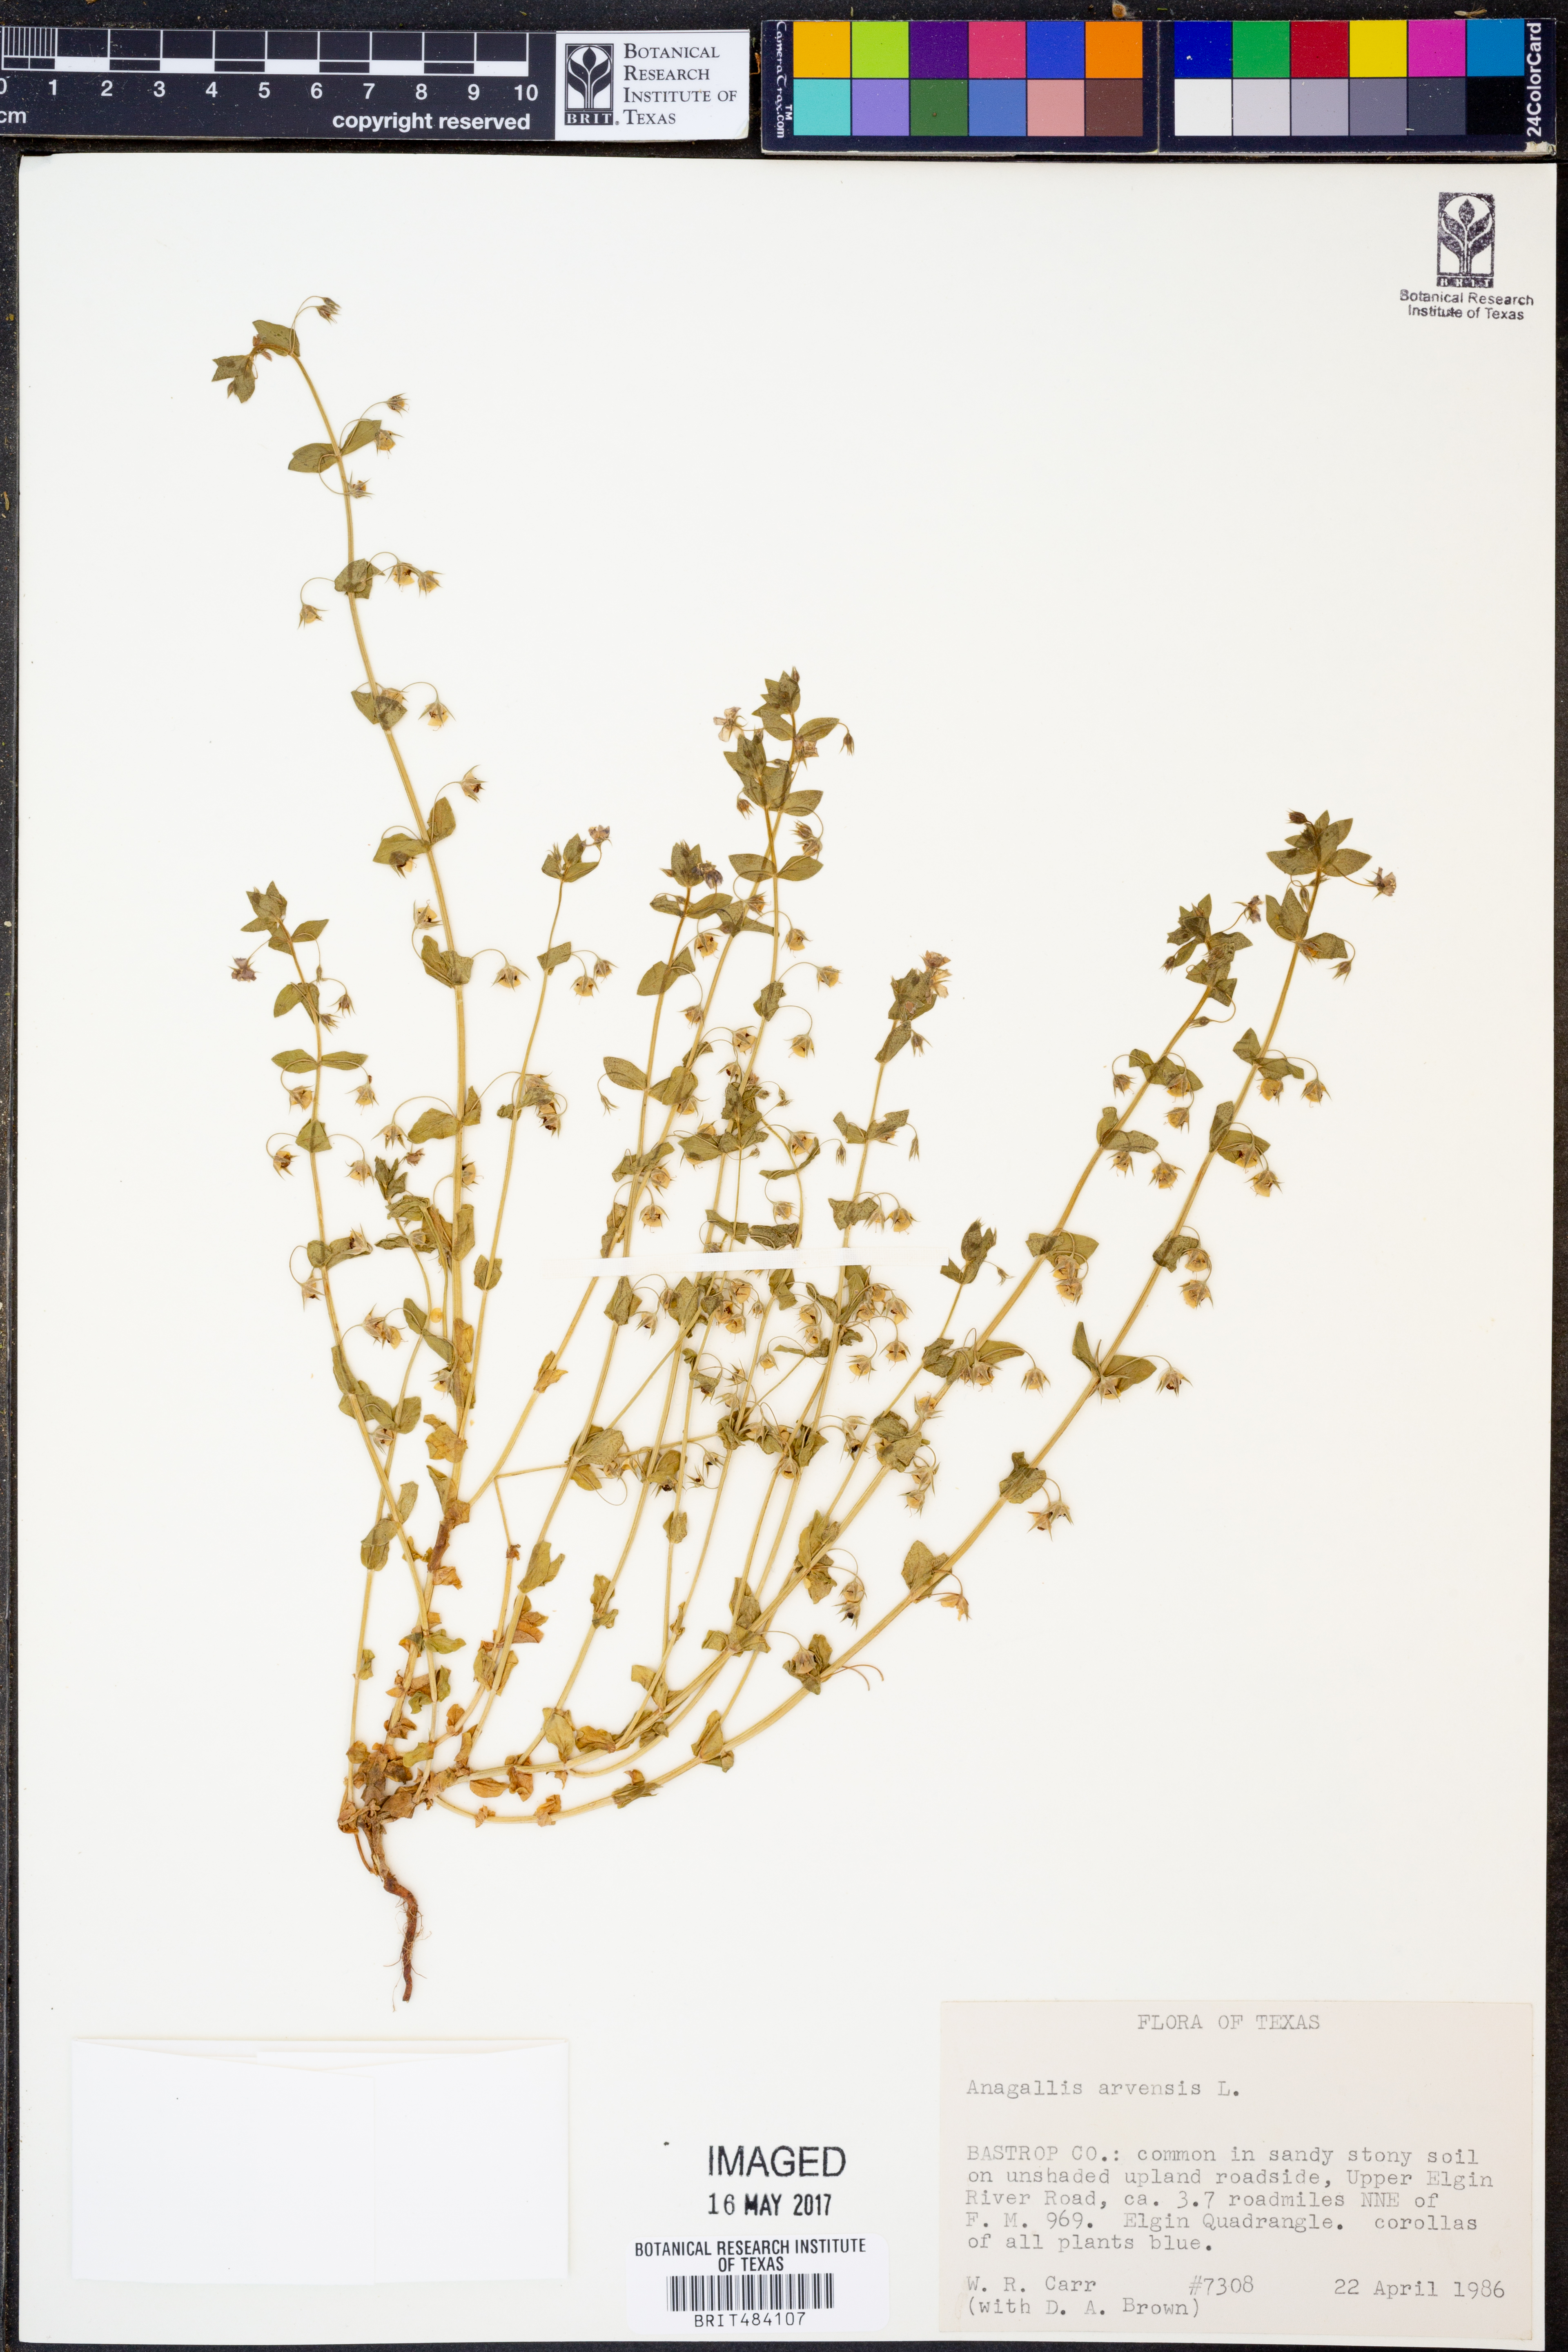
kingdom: Plantae
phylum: Tracheophyta
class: Magnoliopsida
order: Ericales
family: Primulaceae
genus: Lysimachia
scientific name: Lysimachia arvensis
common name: Scarlet pimpernel
